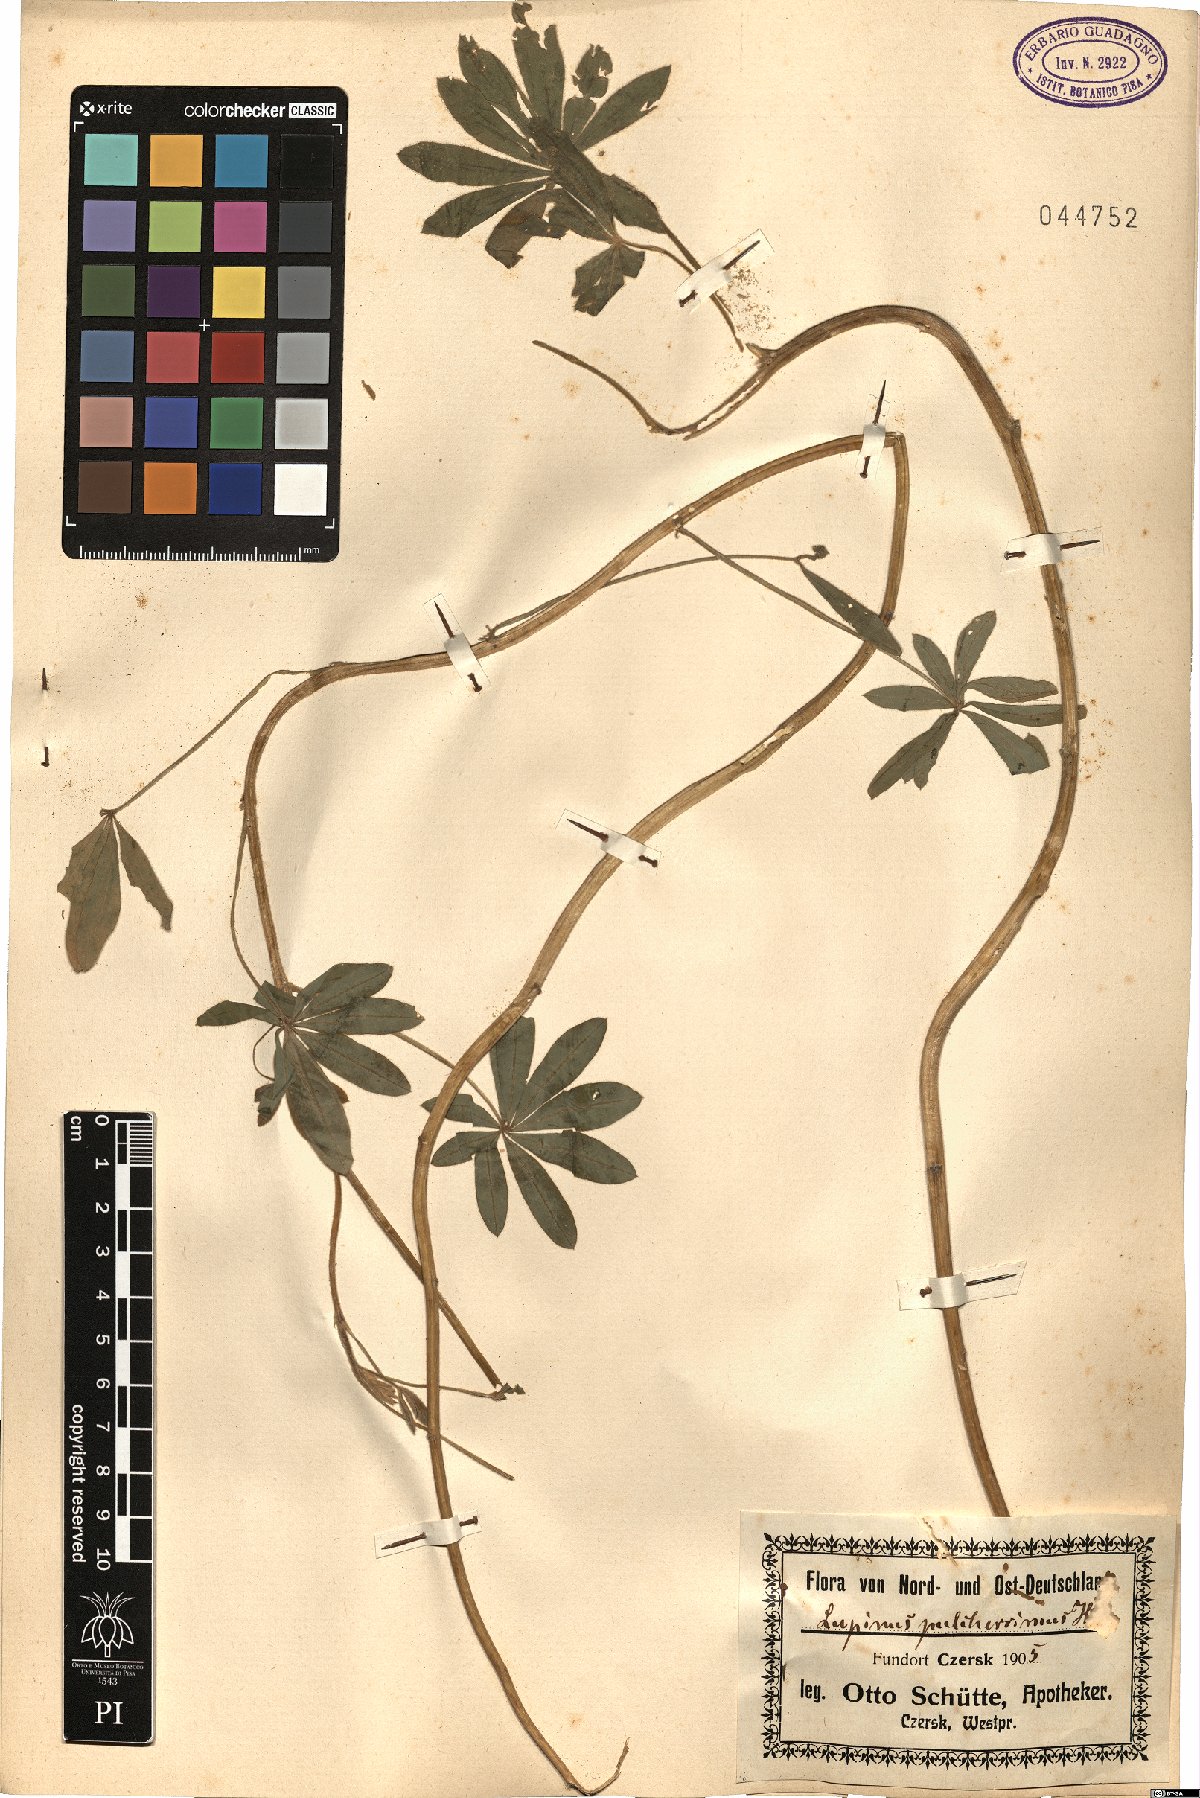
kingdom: Plantae
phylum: Tracheophyta
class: Magnoliopsida
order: Fabales
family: Fabaceae
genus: Lupinus
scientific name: Lupinus argenteus
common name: Silvery lupine
